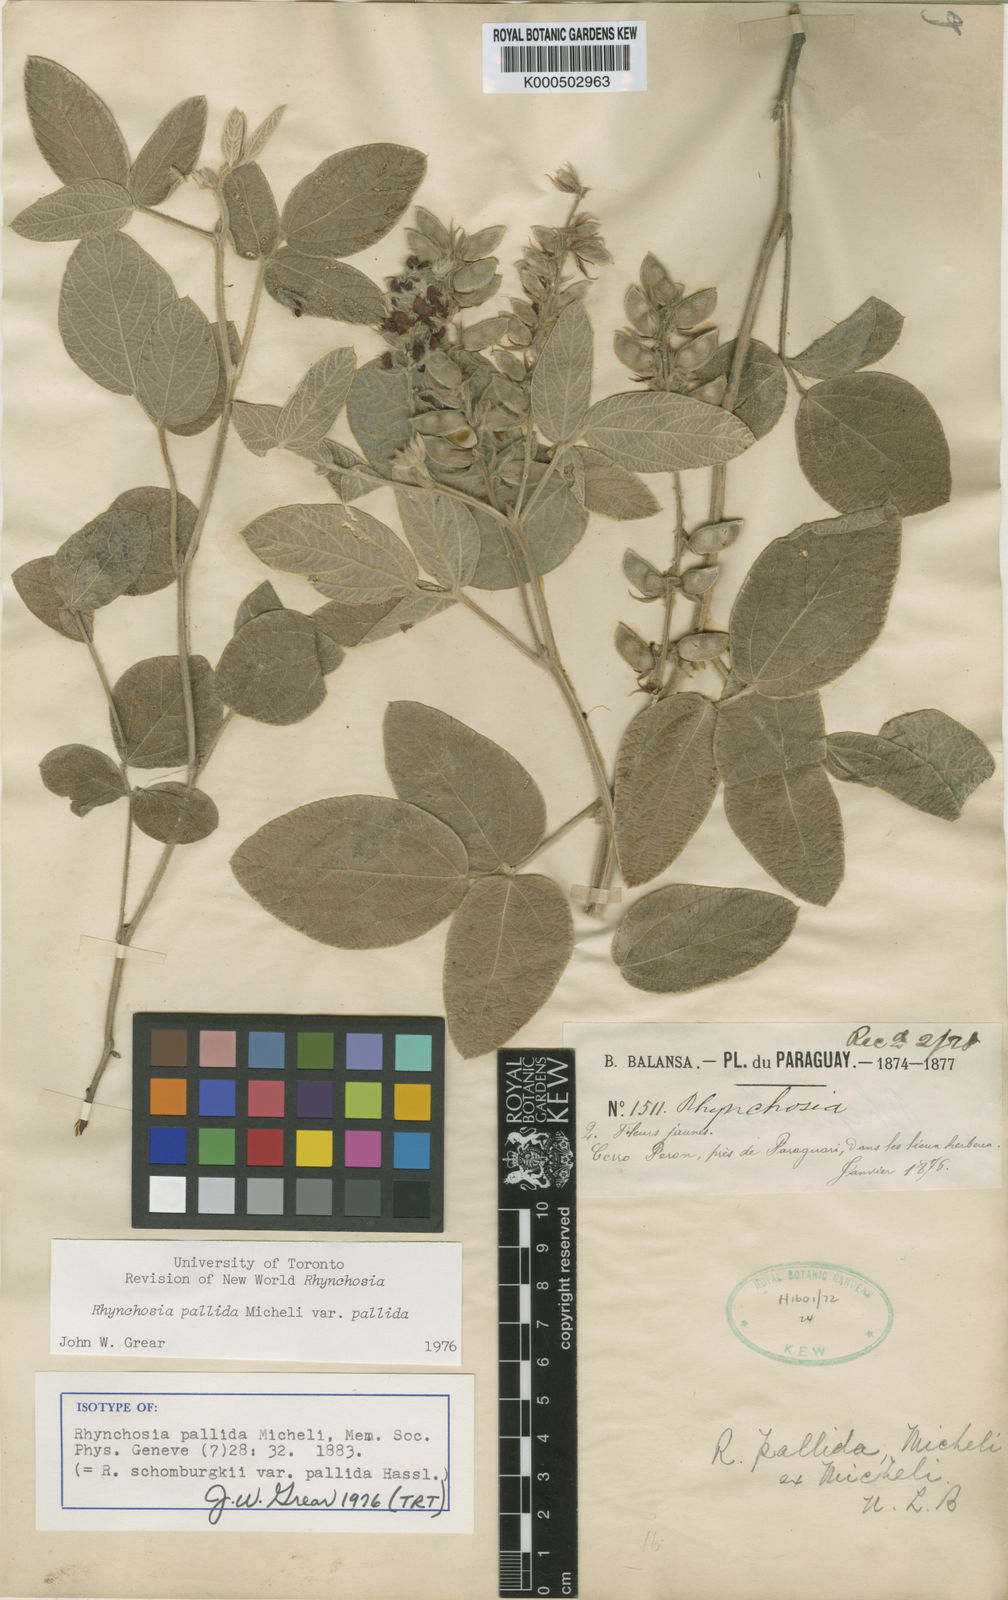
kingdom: Plantae
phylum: Tracheophyta
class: Magnoliopsida
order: Fabales
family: Fabaceae
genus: Rhynchosia
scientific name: Rhynchosia pallida
